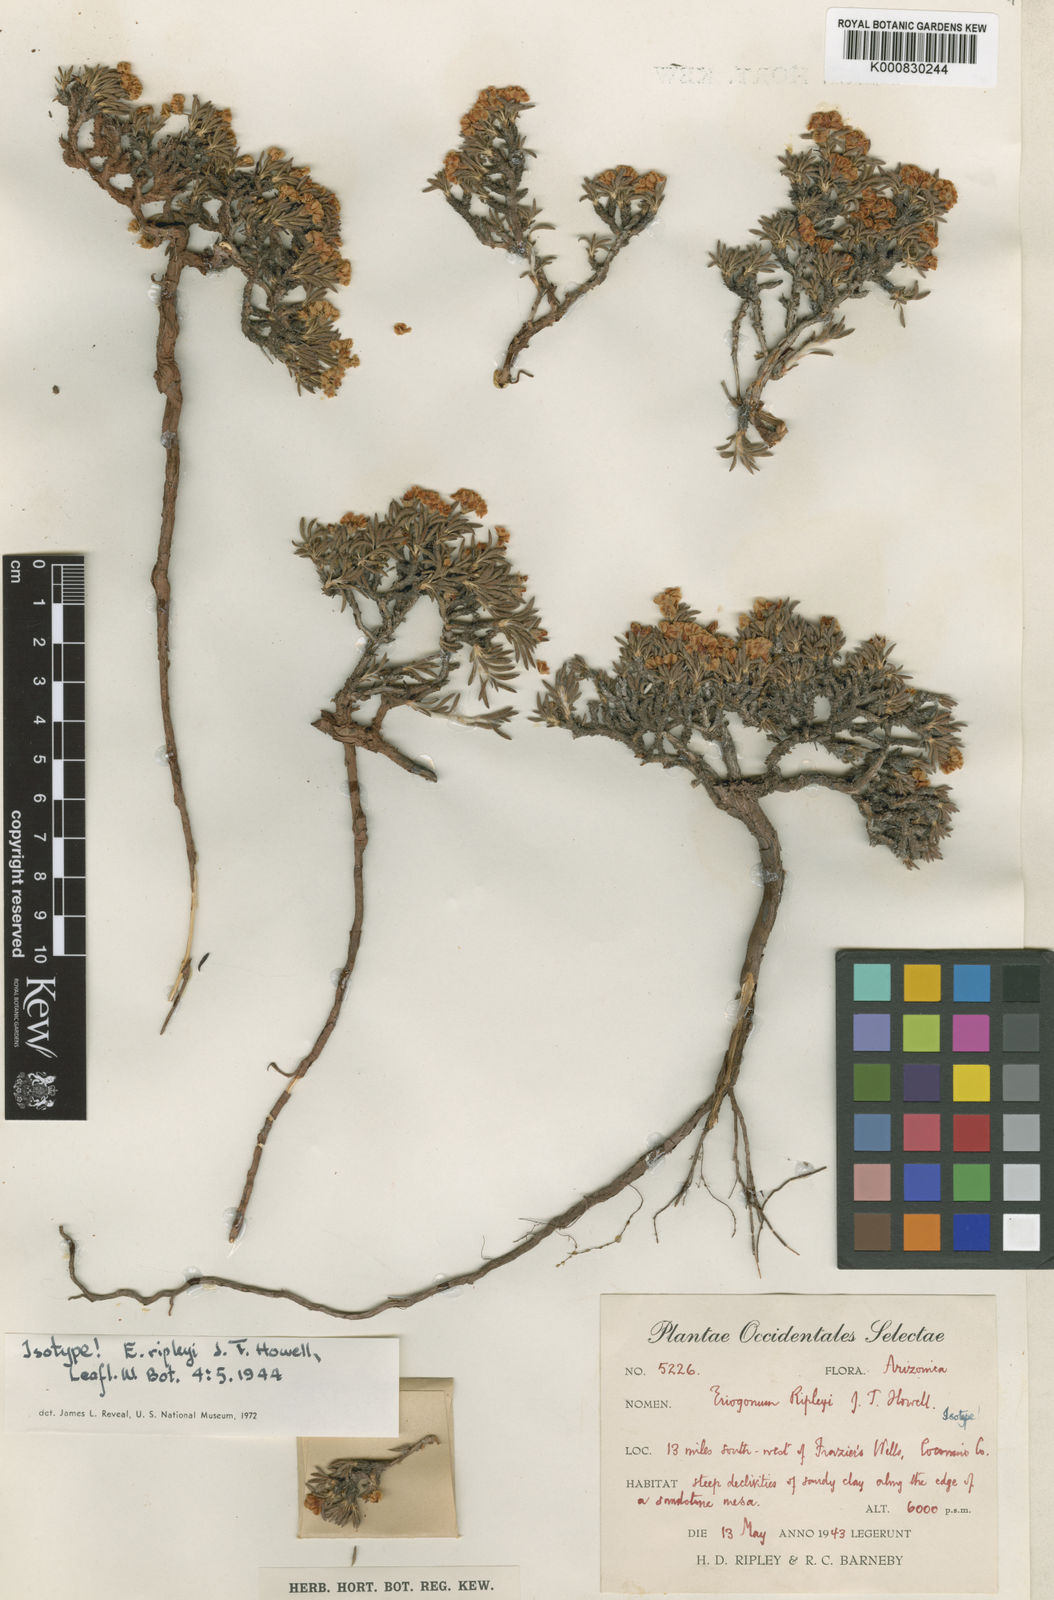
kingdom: Plantae
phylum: Tracheophyta
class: Magnoliopsida
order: Caryophyllales
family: Polygonaceae
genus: Eriogonum
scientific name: Eriogonum ripleyi
